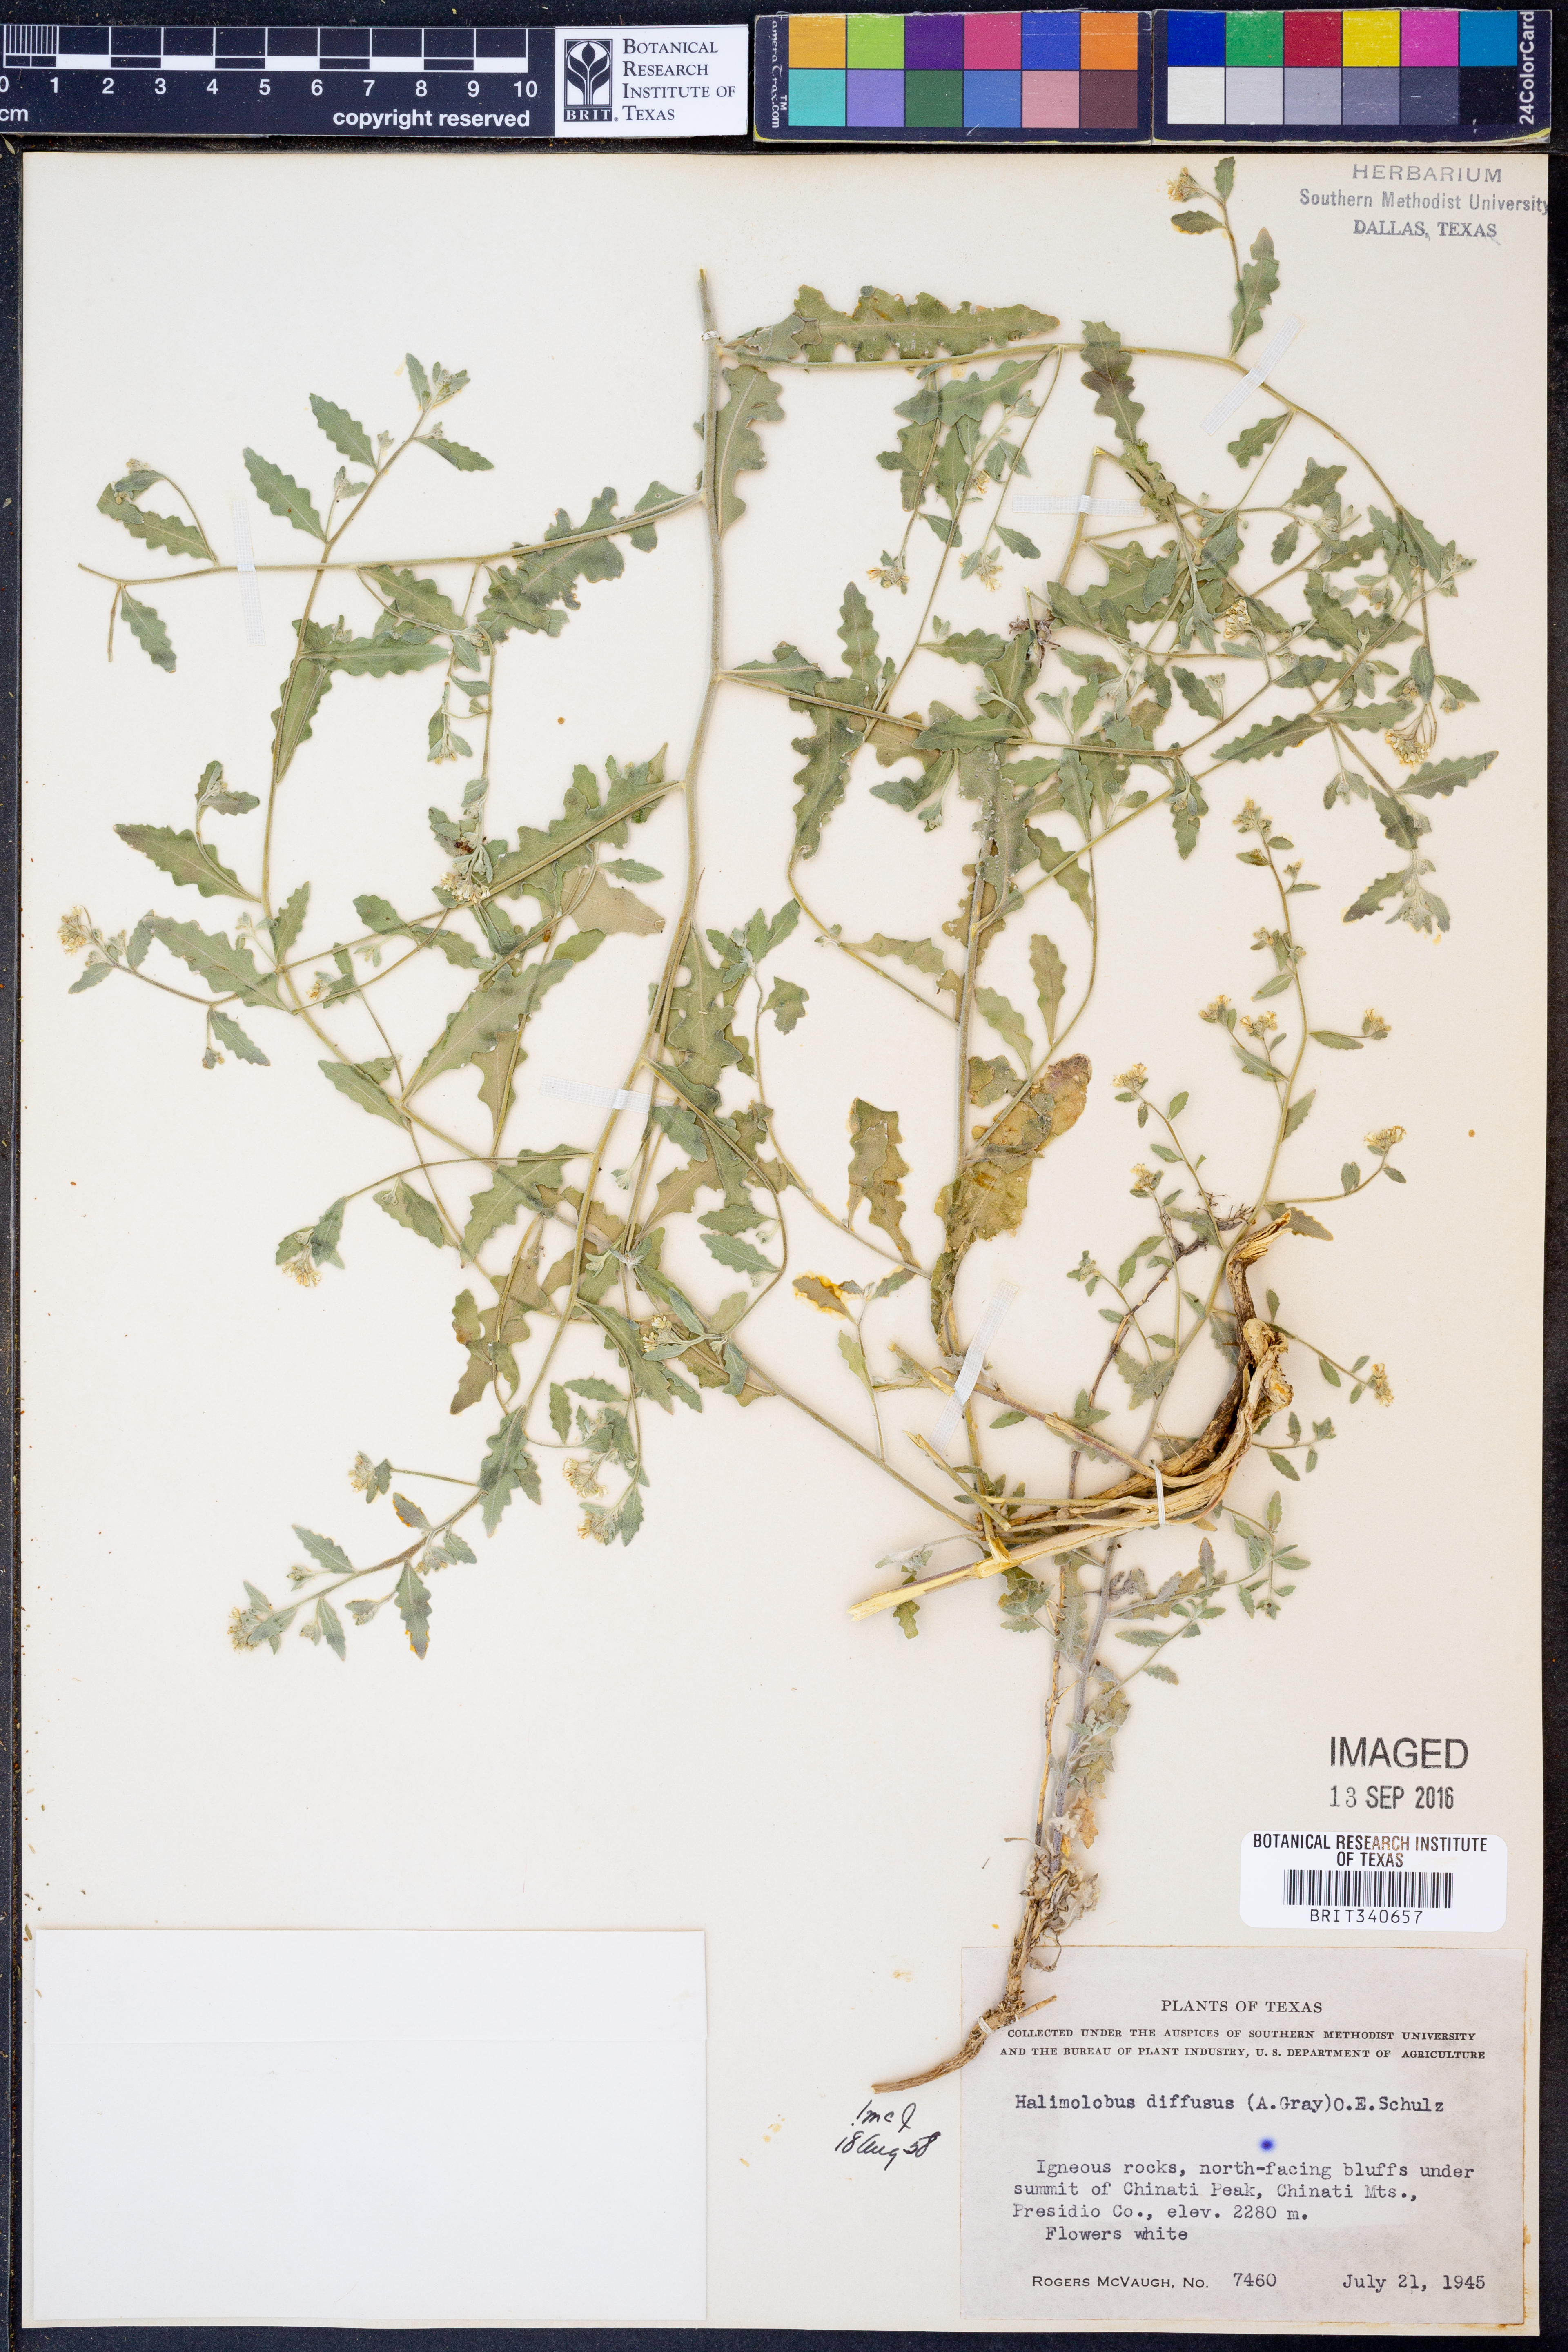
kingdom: Plantae
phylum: Tracheophyta
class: Magnoliopsida
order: Brassicales
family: Brassicaceae
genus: Halimolobos
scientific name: Halimolobos diffusus
